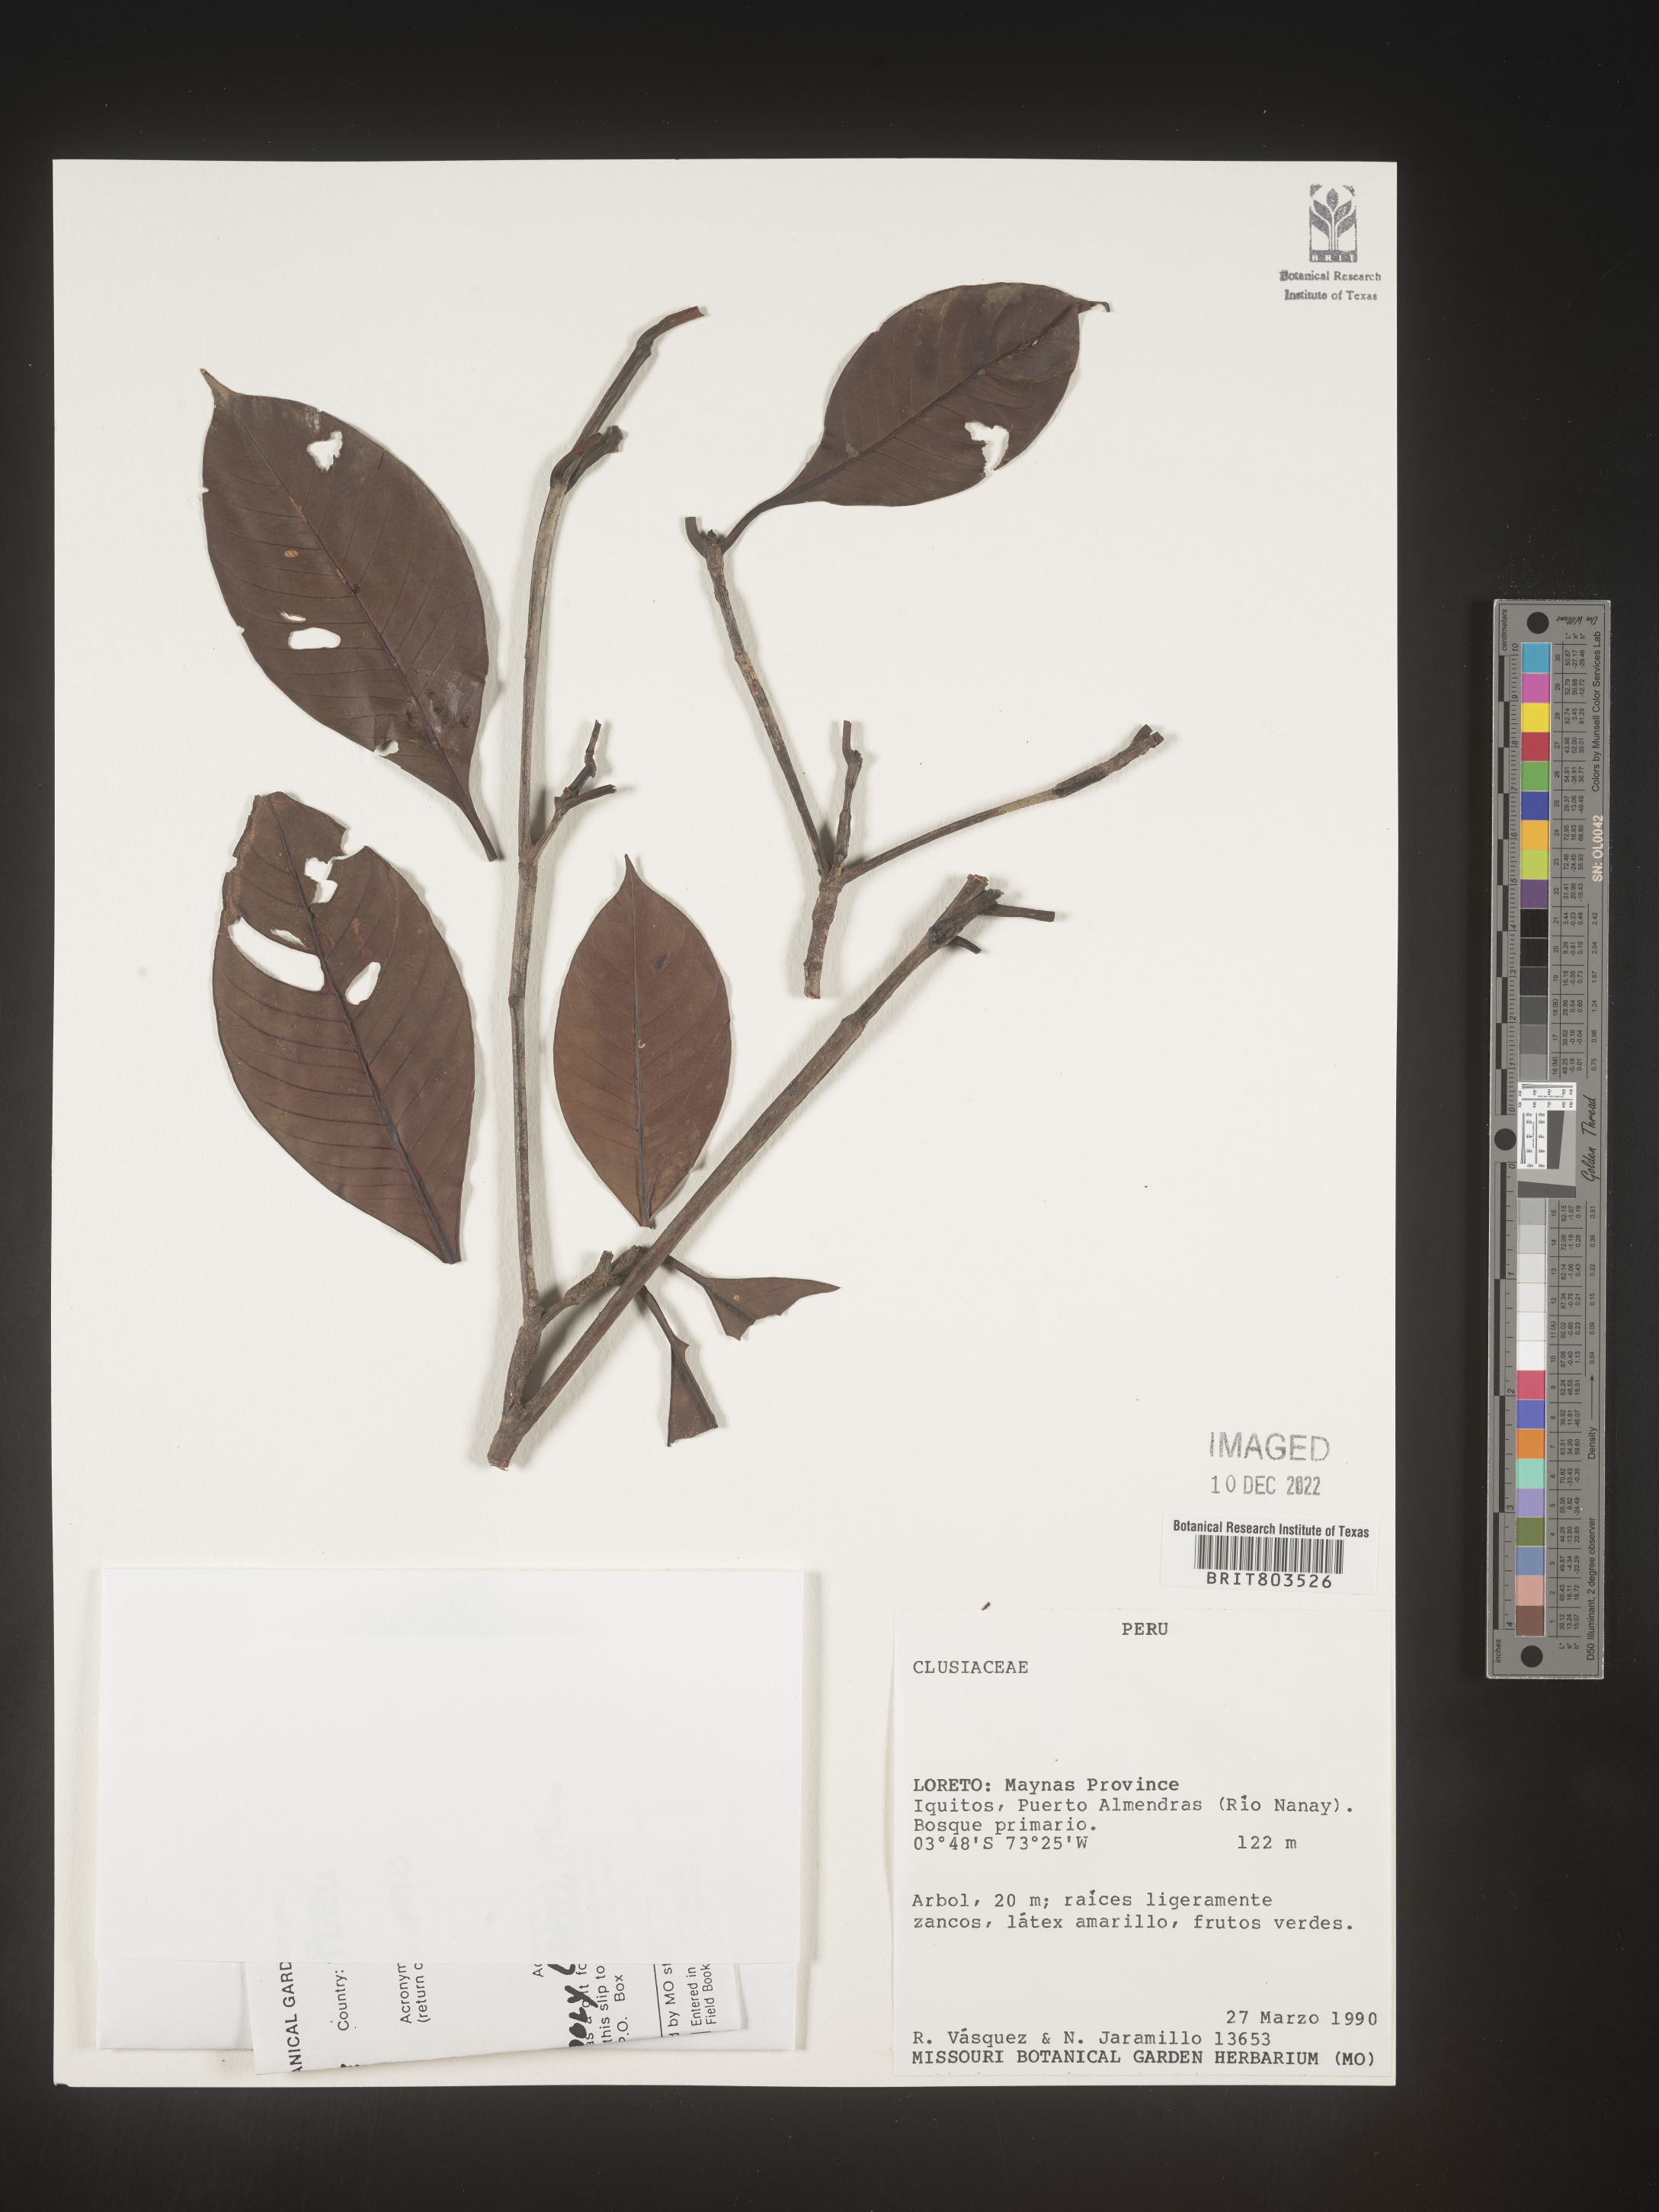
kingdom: Plantae
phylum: Tracheophyta
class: Magnoliopsida
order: Malpighiales
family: Clusiaceae
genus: Tovomita
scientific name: Tovomita
